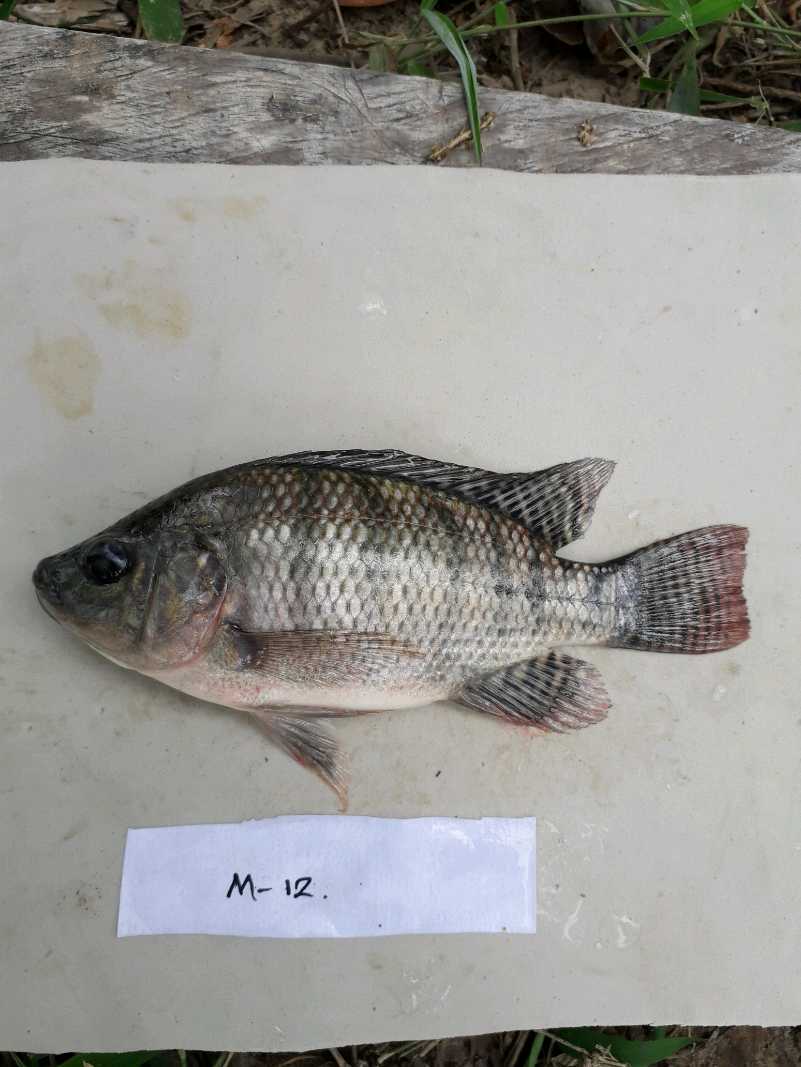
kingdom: Animalia
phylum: Chordata
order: Perciformes
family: Cichlidae
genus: Oreochromis
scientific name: Oreochromis niloticus
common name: Nile tilapia
